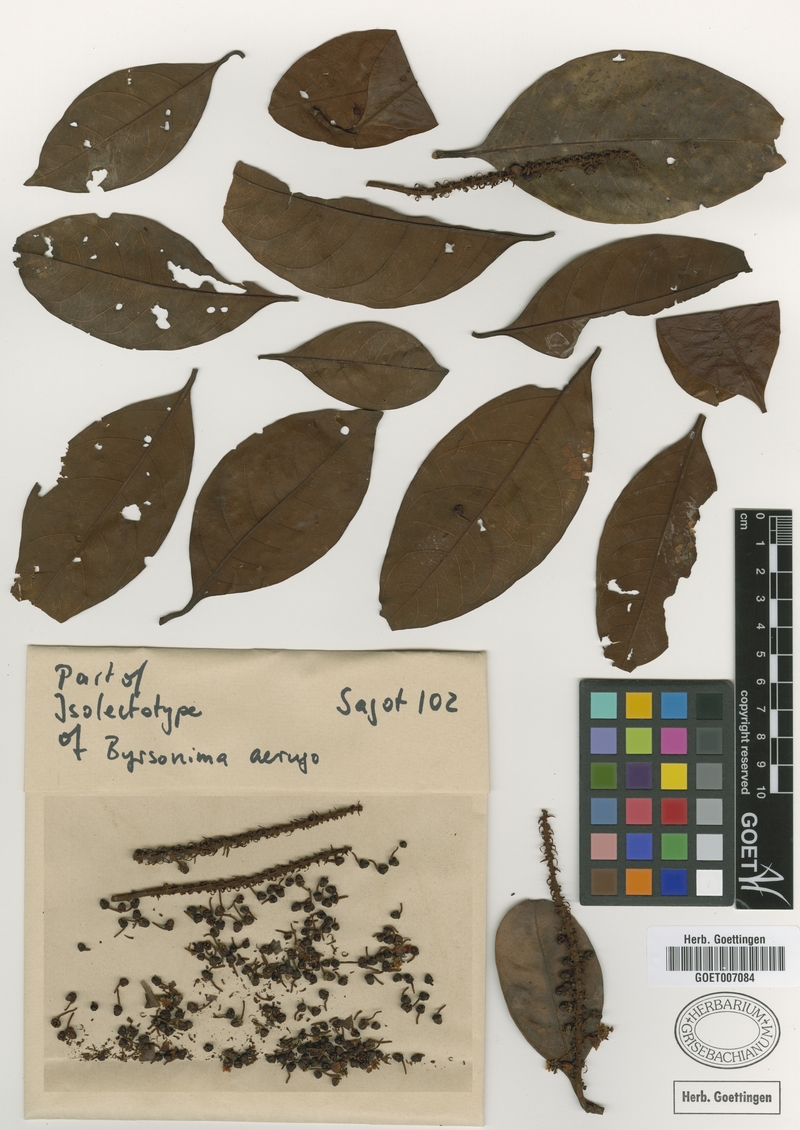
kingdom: Plantae
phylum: Tracheophyta
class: Magnoliopsida
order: Malpighiales
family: Malpighiaceae
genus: Byrsonima
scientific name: Byrsonima aerugo
